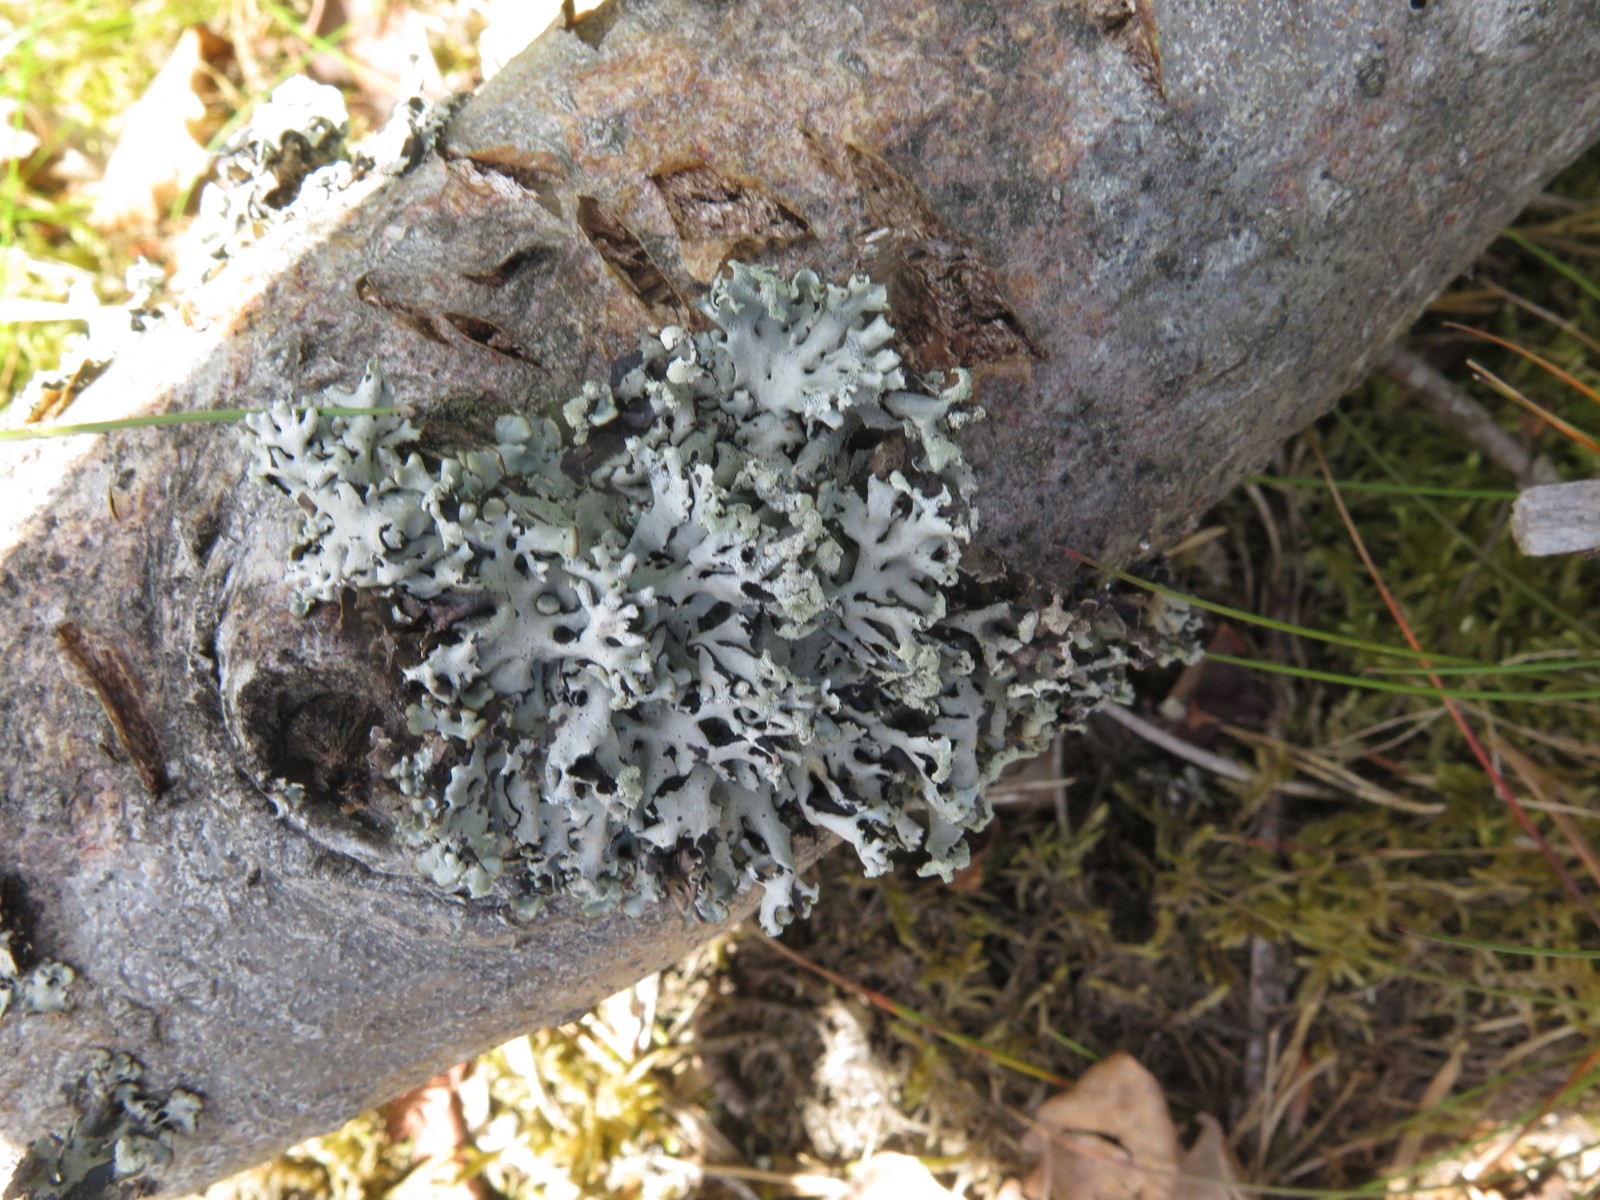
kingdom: Fungi
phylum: Ascomycota
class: Lecanoromycetes
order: Lecanorales
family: Parmeliaceae
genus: Hypogymnia
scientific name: Hypogymnia physodes
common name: almindelig kvistlav
